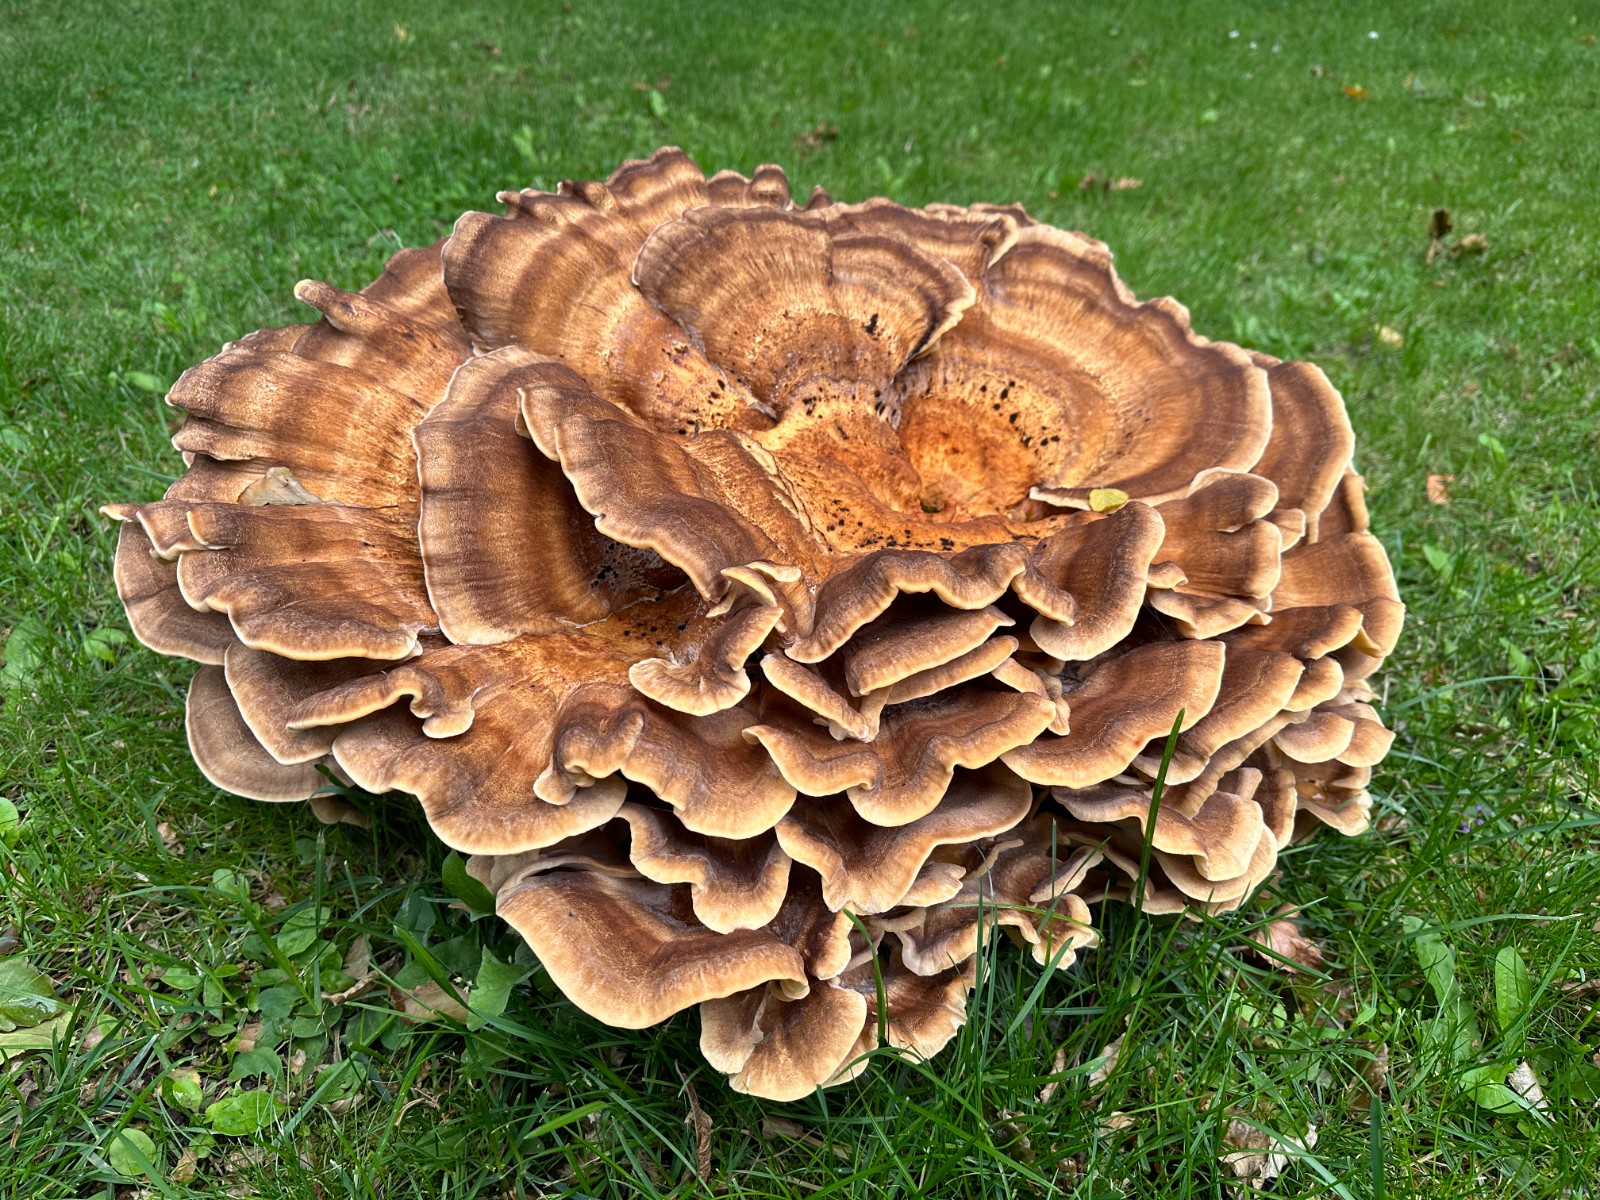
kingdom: Fungi
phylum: Basidiomycota
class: Agaricomycetes
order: Polyporales
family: Meripilaceae
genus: Meripilus
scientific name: Meripilus giganteus
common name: kæmpeporesvamp
